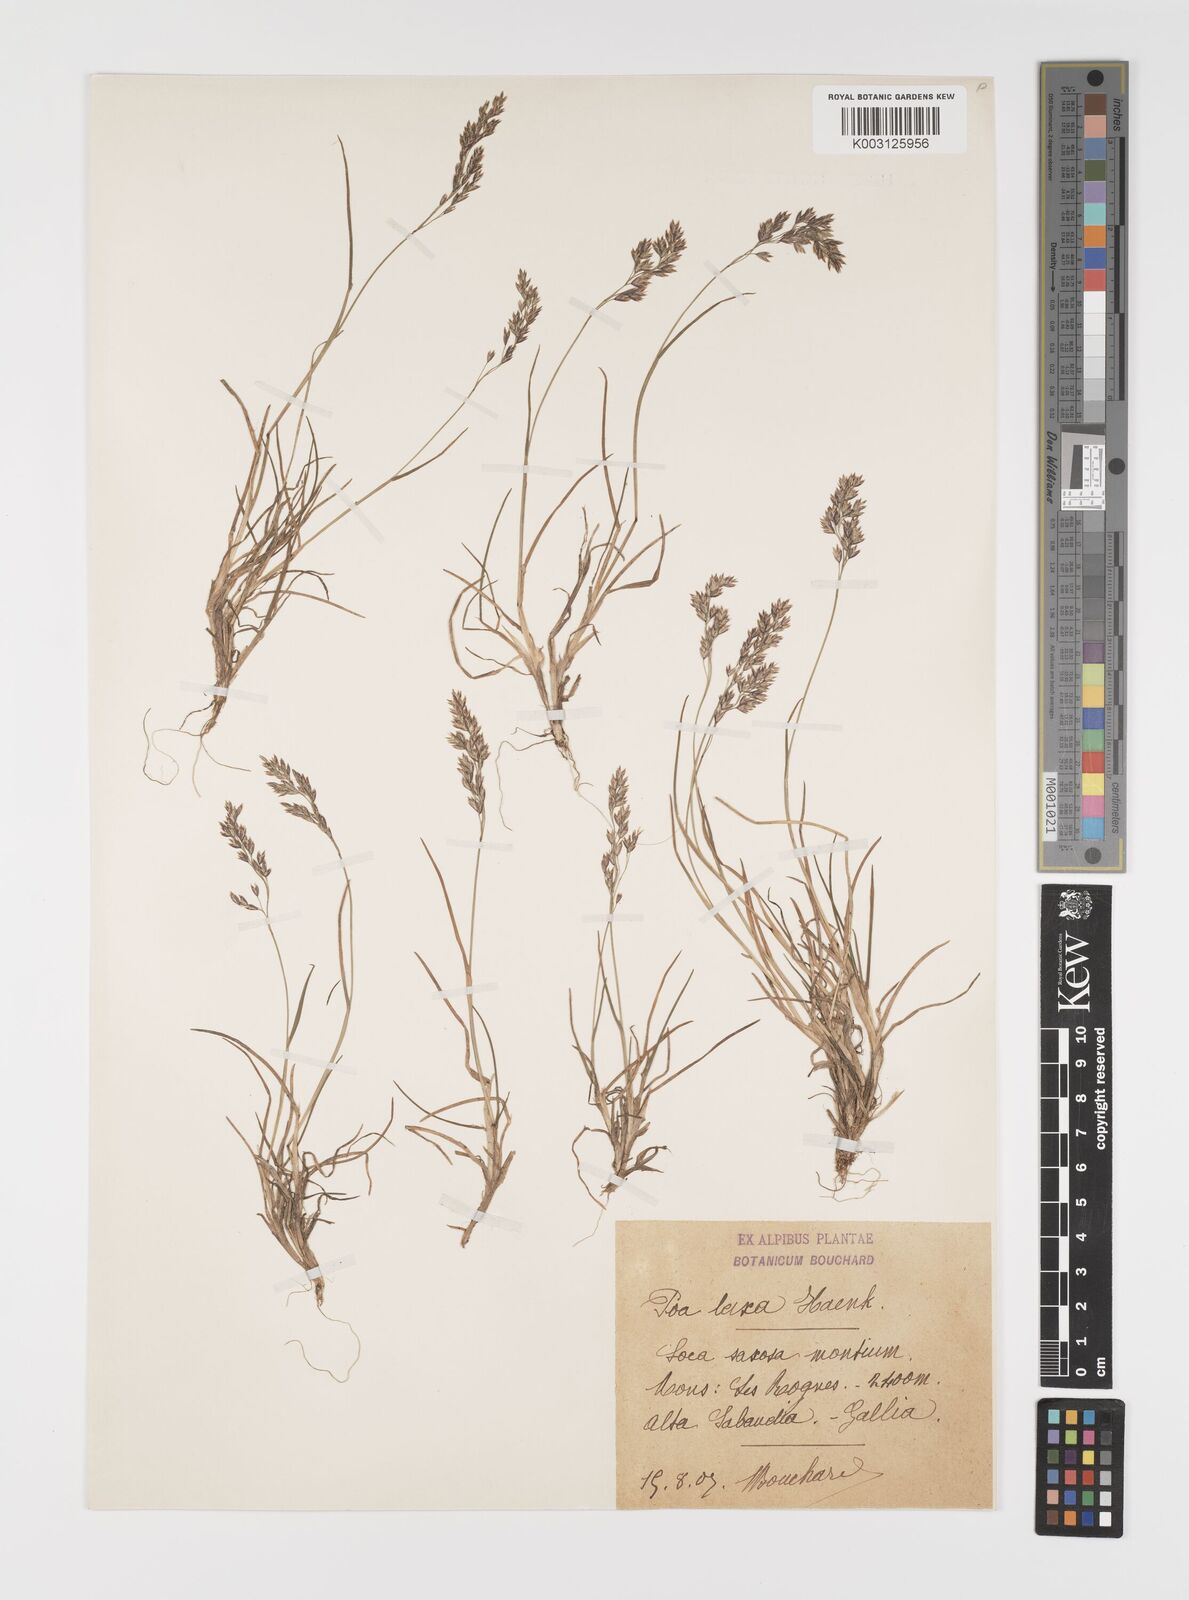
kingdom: Plantae
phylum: Tracheophyta
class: Liliopsida
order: Poales
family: Poaceae
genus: Poa
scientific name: Poa laxa
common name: Lax bluegrass
